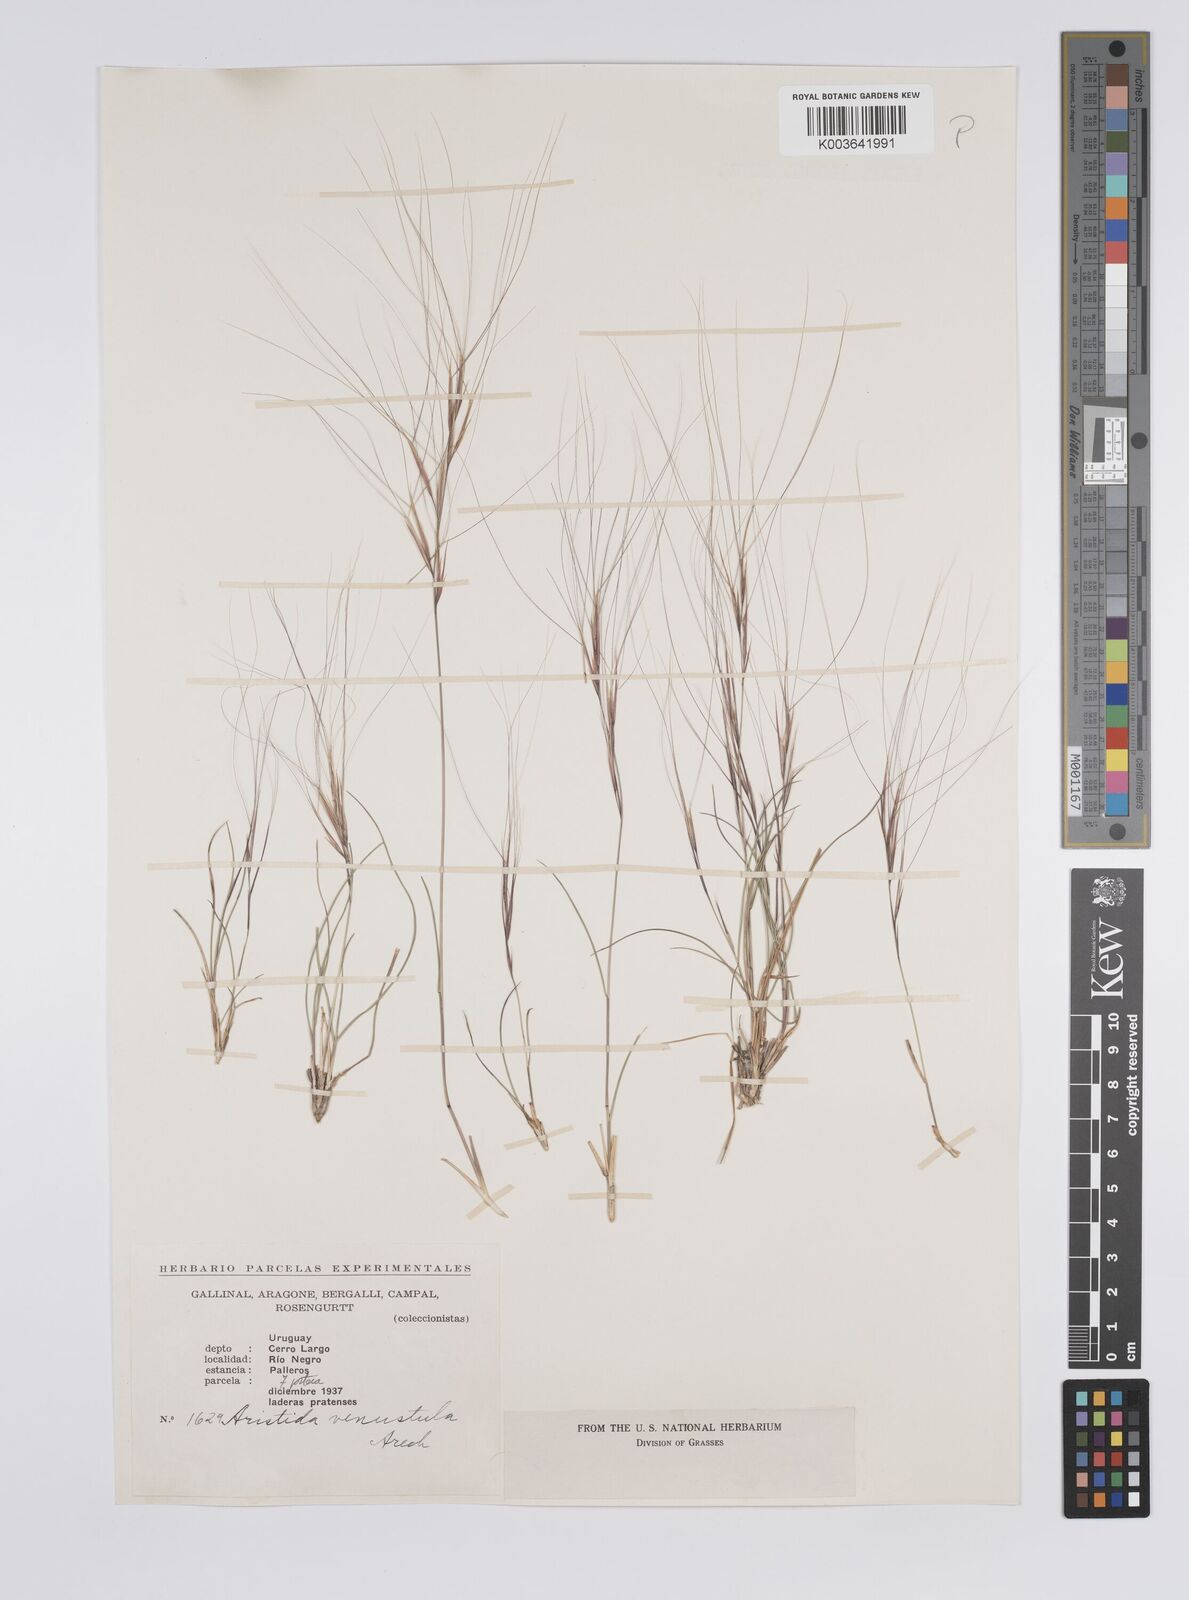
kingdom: Plantae
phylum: Tracheophyta
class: Liliopsida
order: Poales
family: Poaceae
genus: Aristida
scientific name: Aristida venustula
